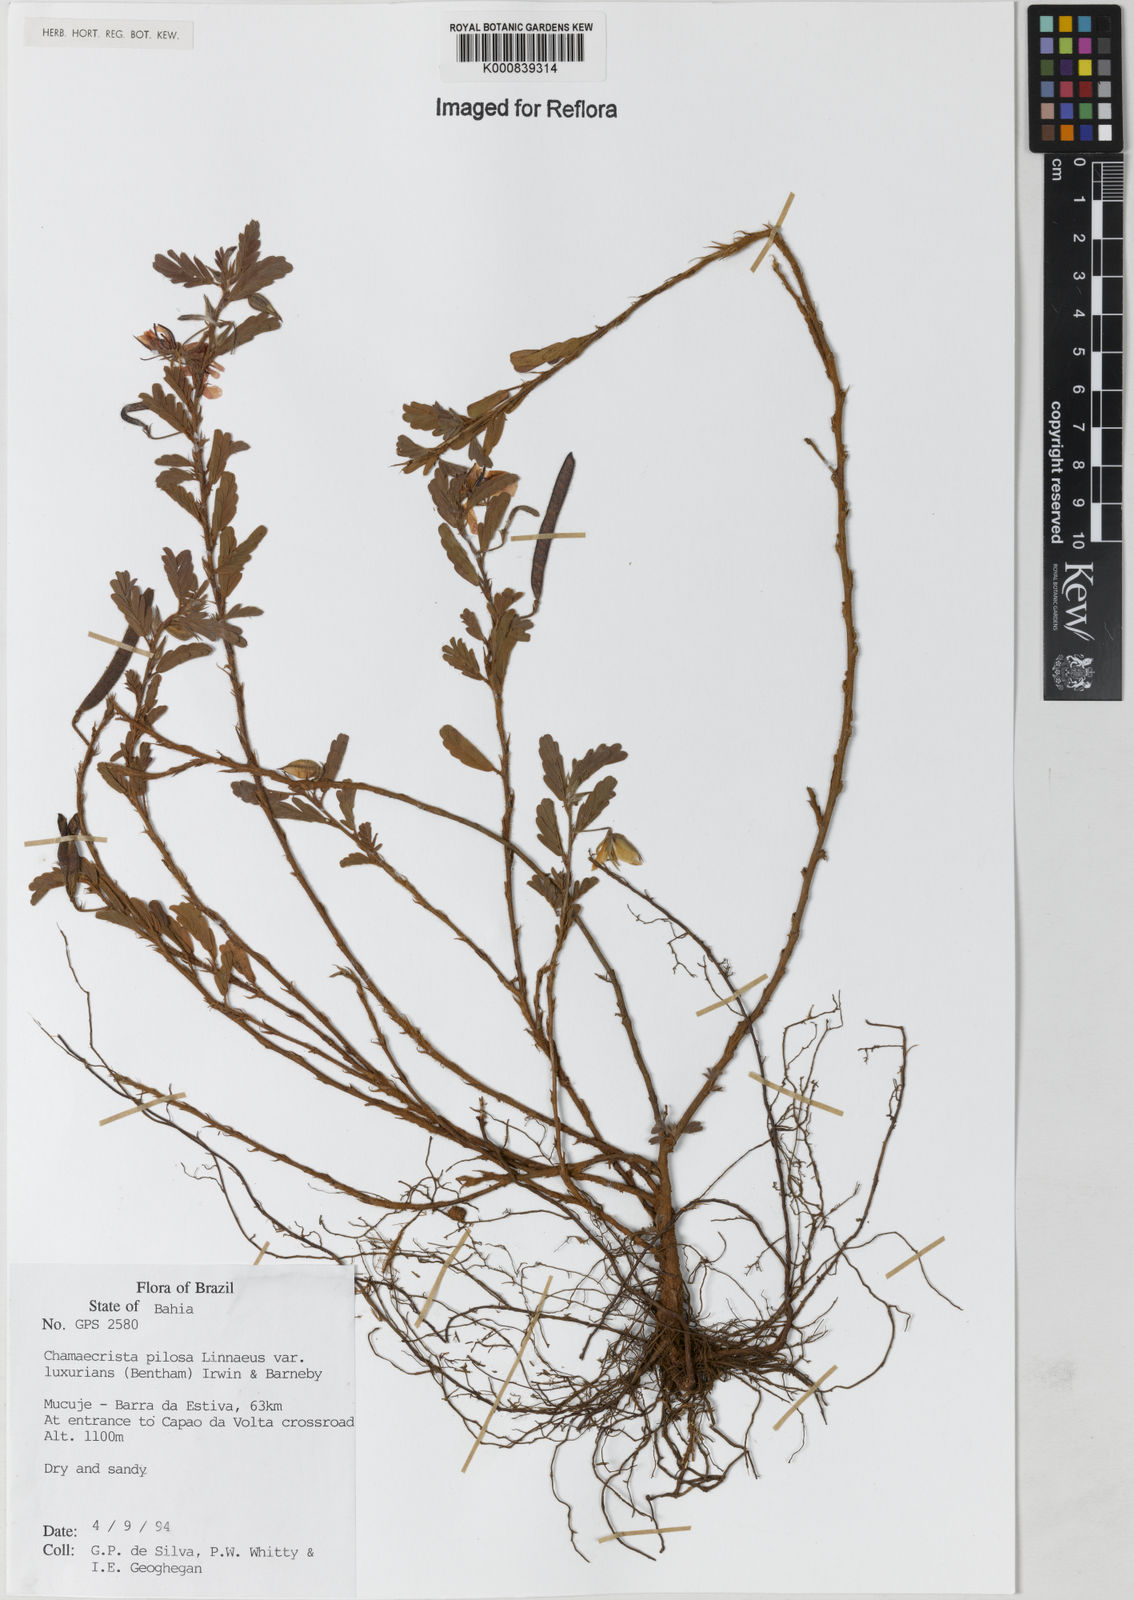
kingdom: Plantae
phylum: Tracheophyta
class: Magnoliopsida
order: Fabales
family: Fabaceae
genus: Chamaecrista
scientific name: Chamaecrista pilosa
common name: Hairy sensitive pea
